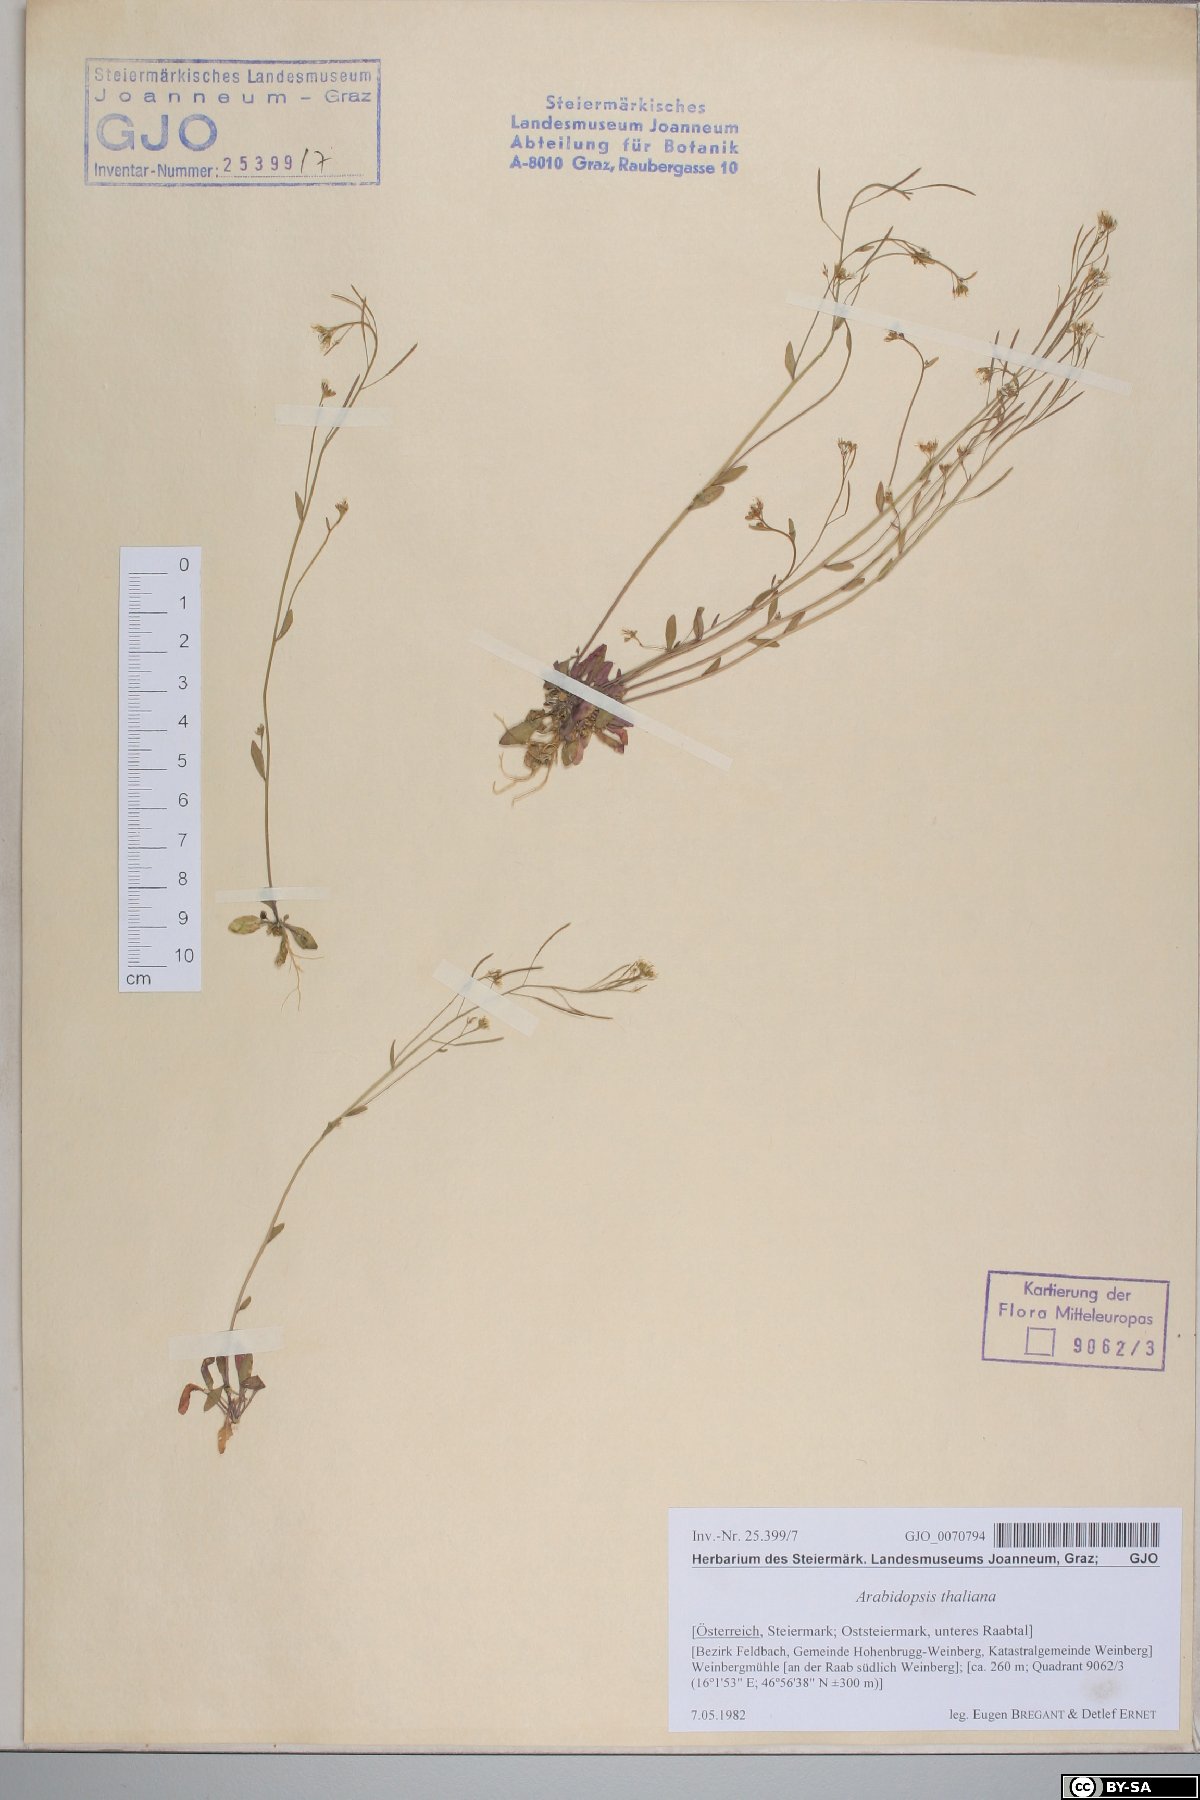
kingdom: Plantae
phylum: Tracheophyta
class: Magnoliopsida
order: Brassicales
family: Brassicaceae
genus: Arabidopsis
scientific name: Arabidopsis thaliana
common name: Thale cress
